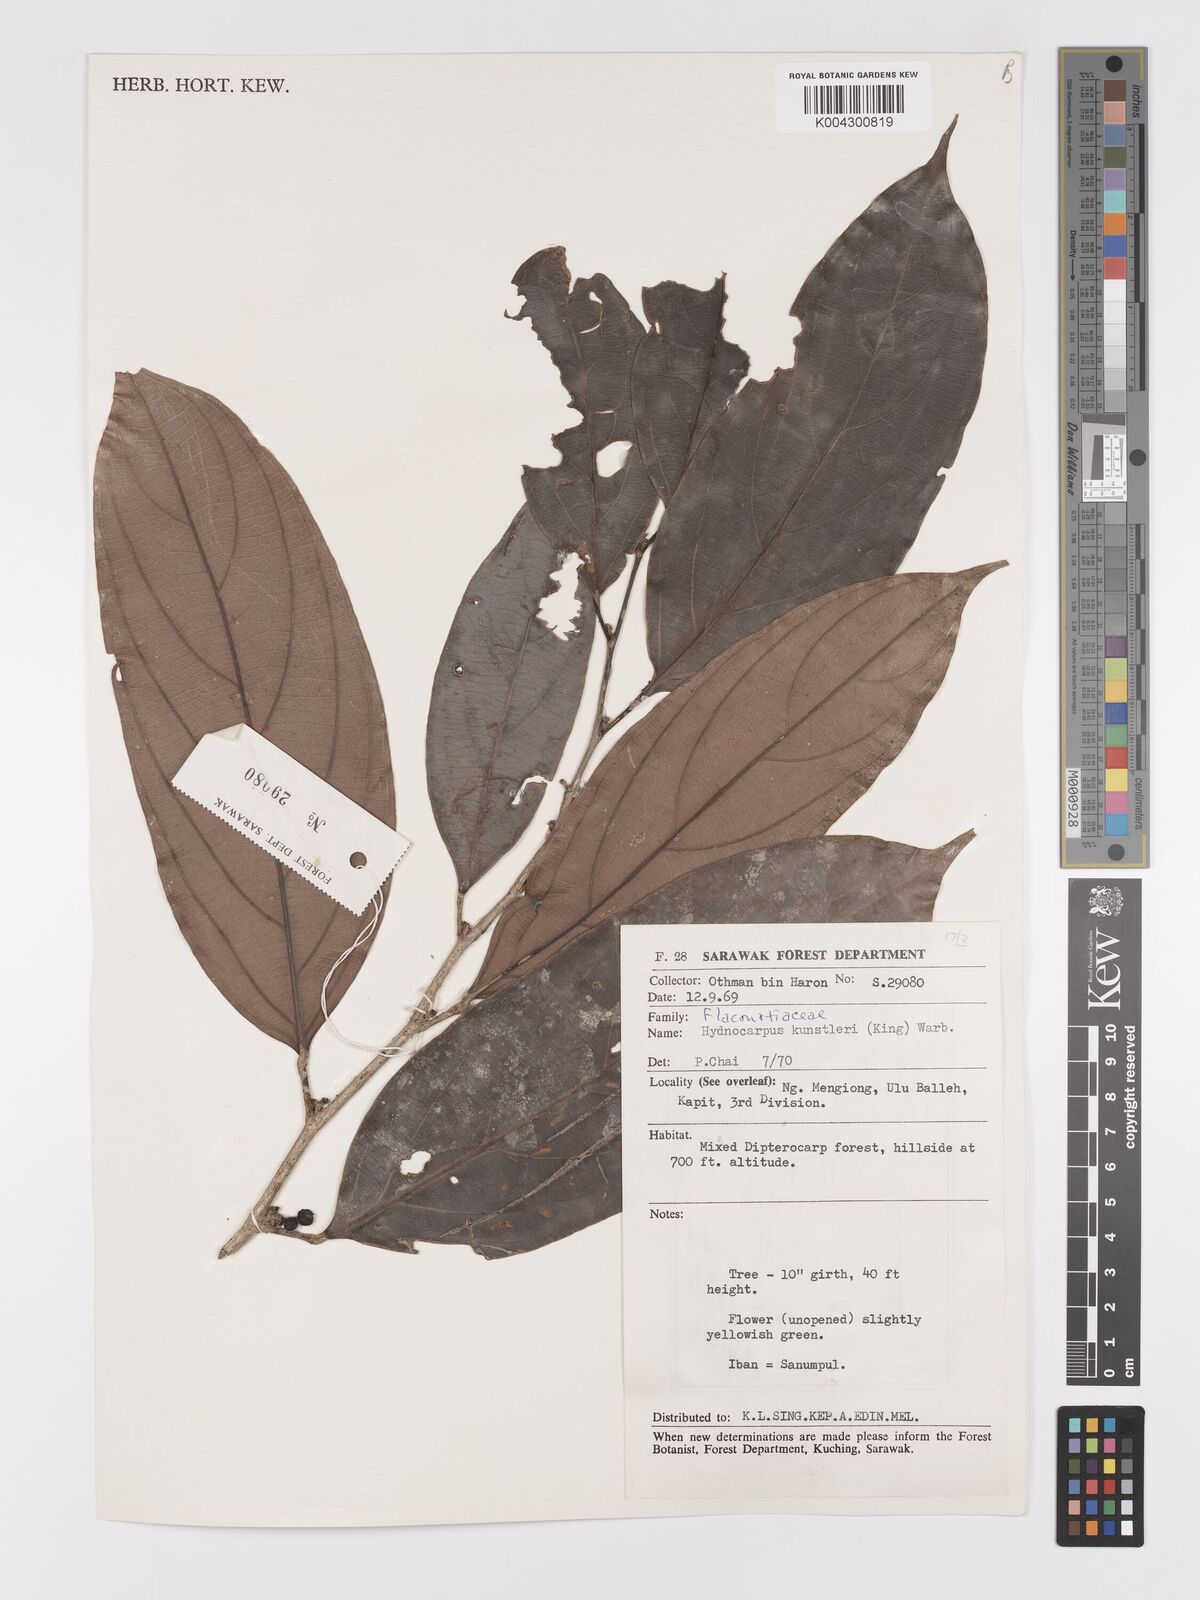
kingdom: Plantae
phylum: Tracheophyta
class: Magnoliopsida
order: Malpighiales
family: Achariaceae
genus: Hydnocarpus
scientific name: Hydnocarpus kunstleri
